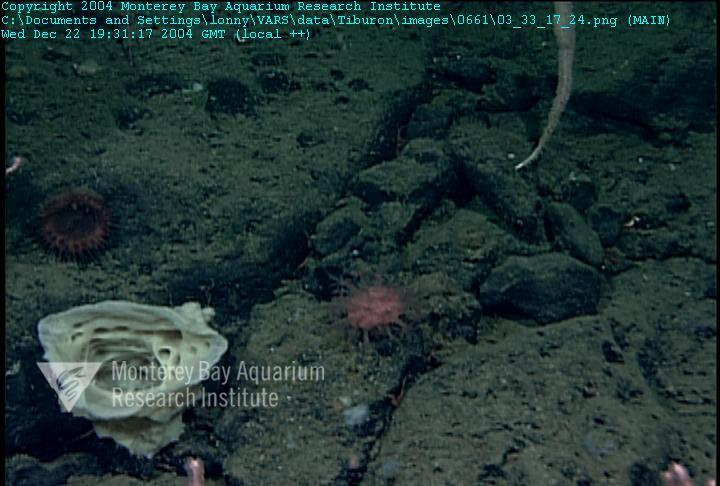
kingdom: Animalia
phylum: Porifera
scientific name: Porifera
